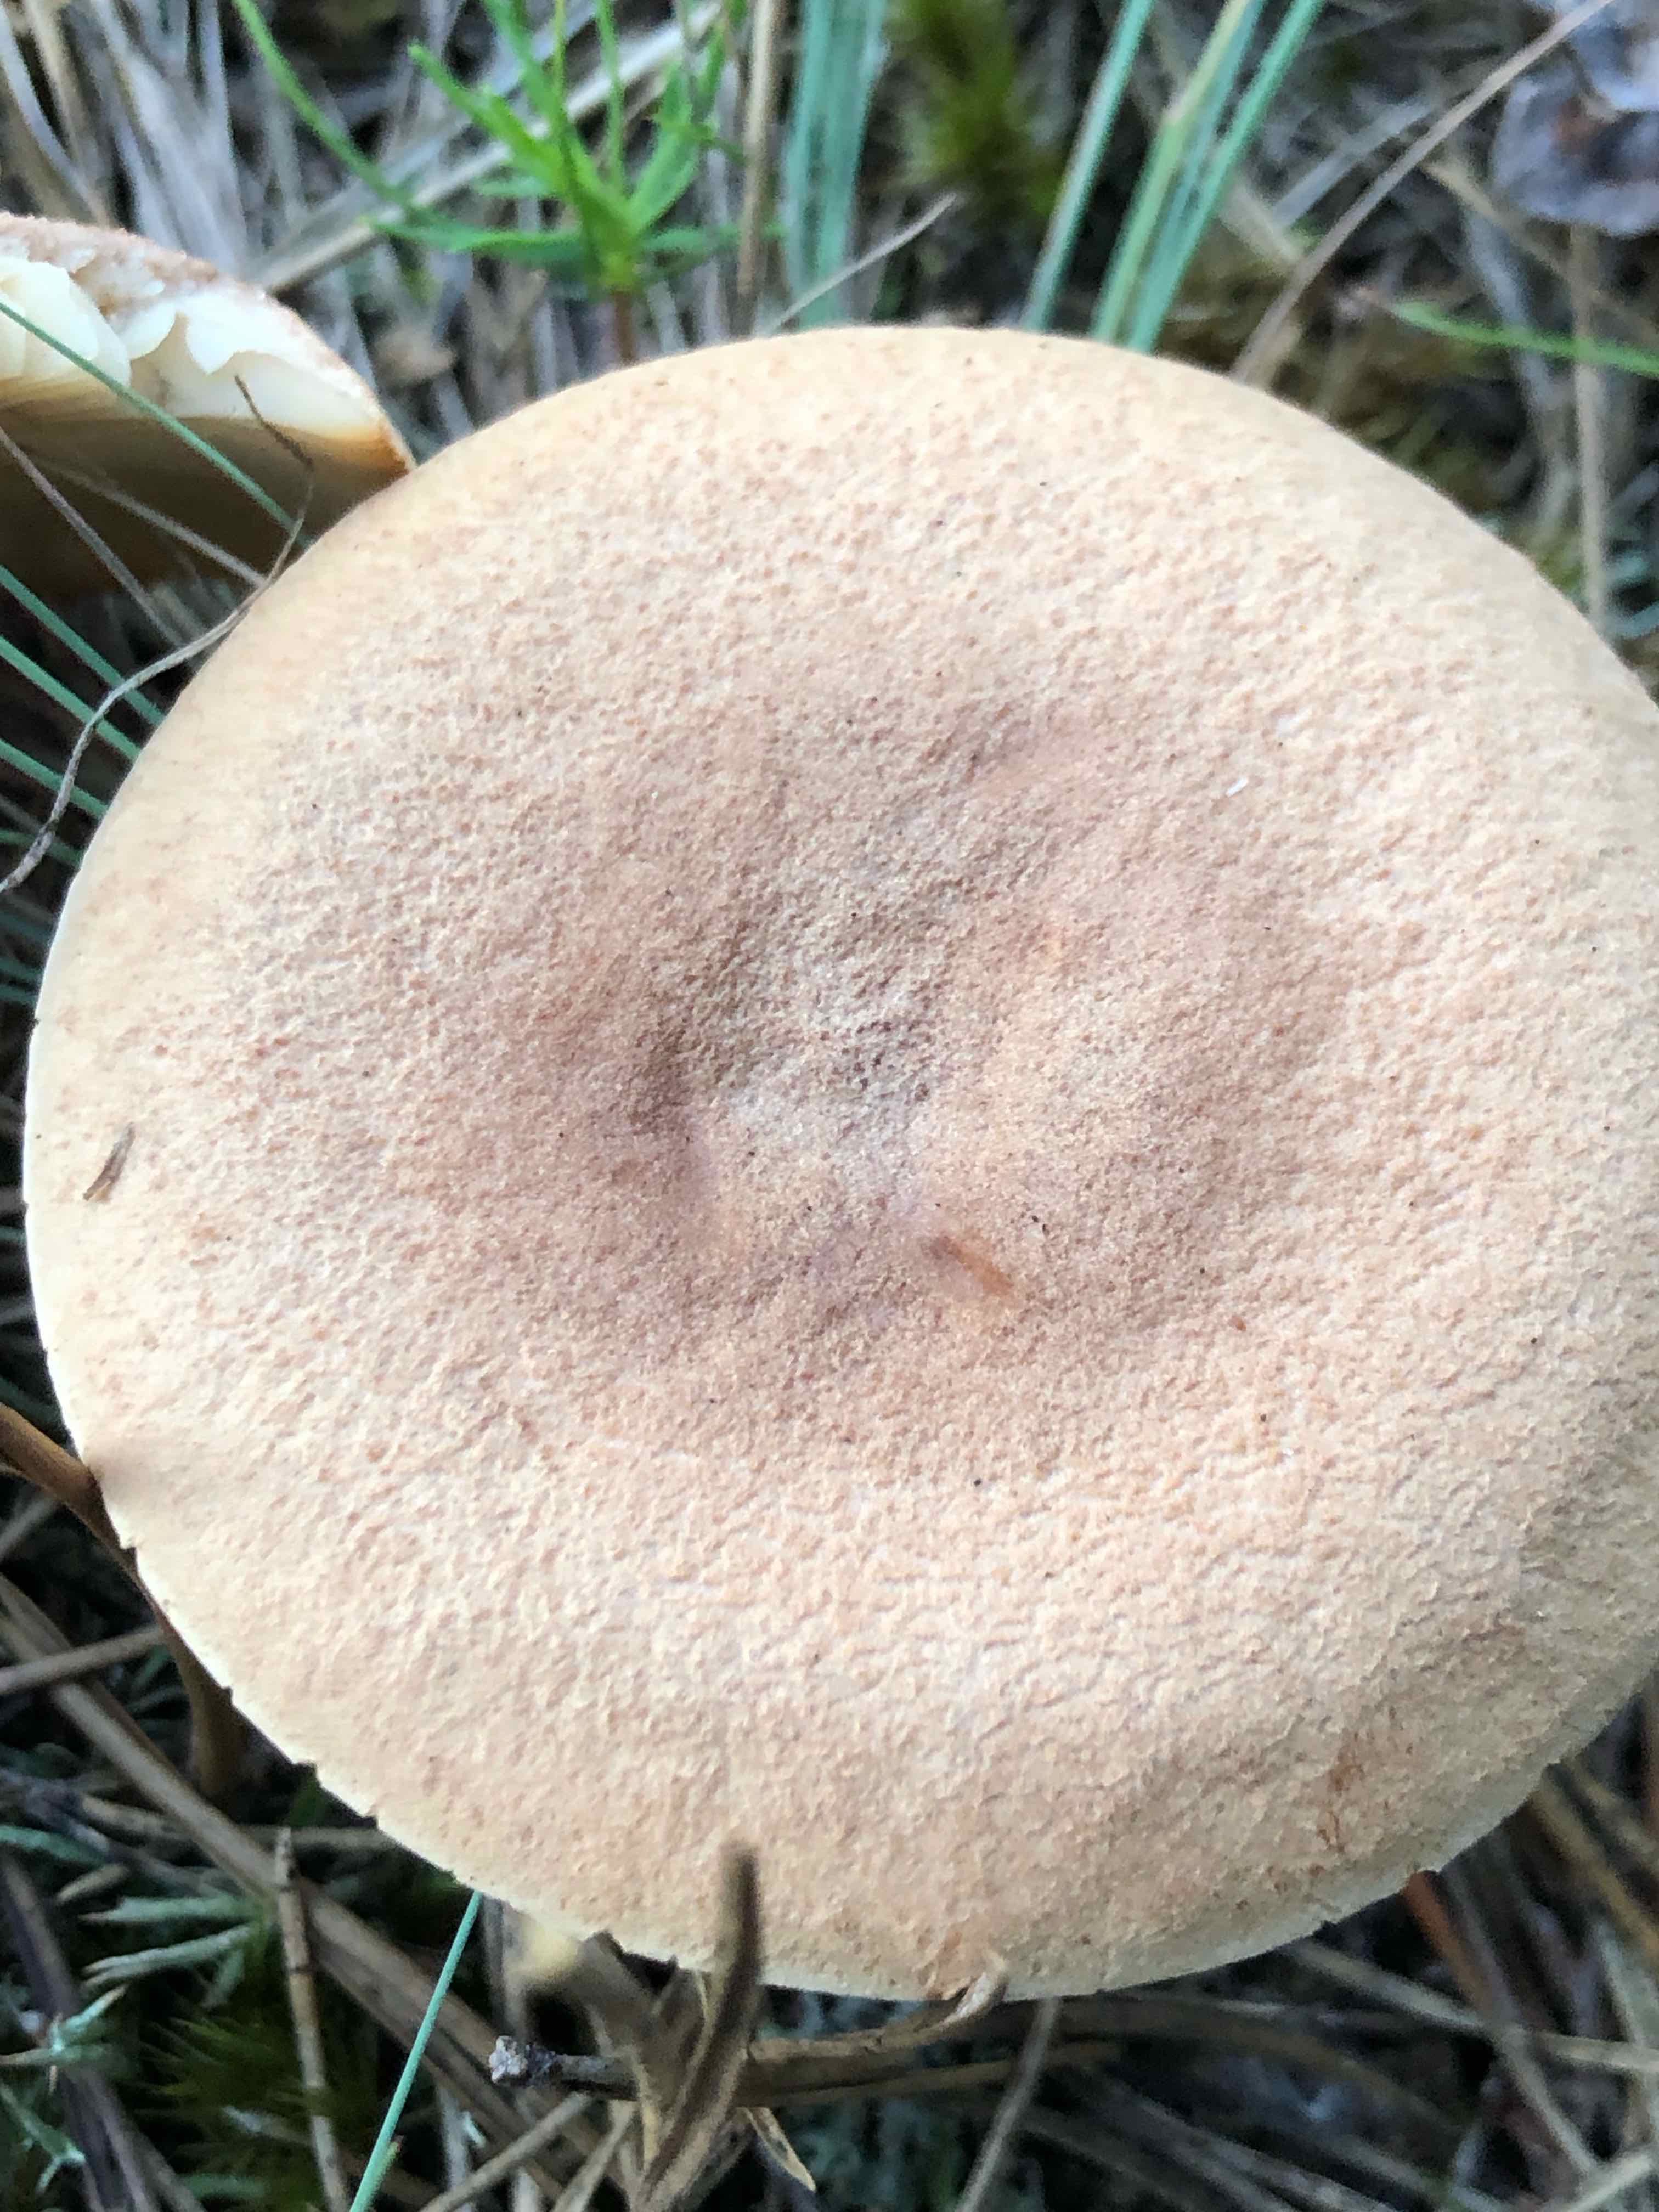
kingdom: Fungi
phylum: Basidiomycota
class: Agaricomycetes
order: Russulales
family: Russulaceae
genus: Lactarius
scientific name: Lactarius helvus
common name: mose-mælkehat
